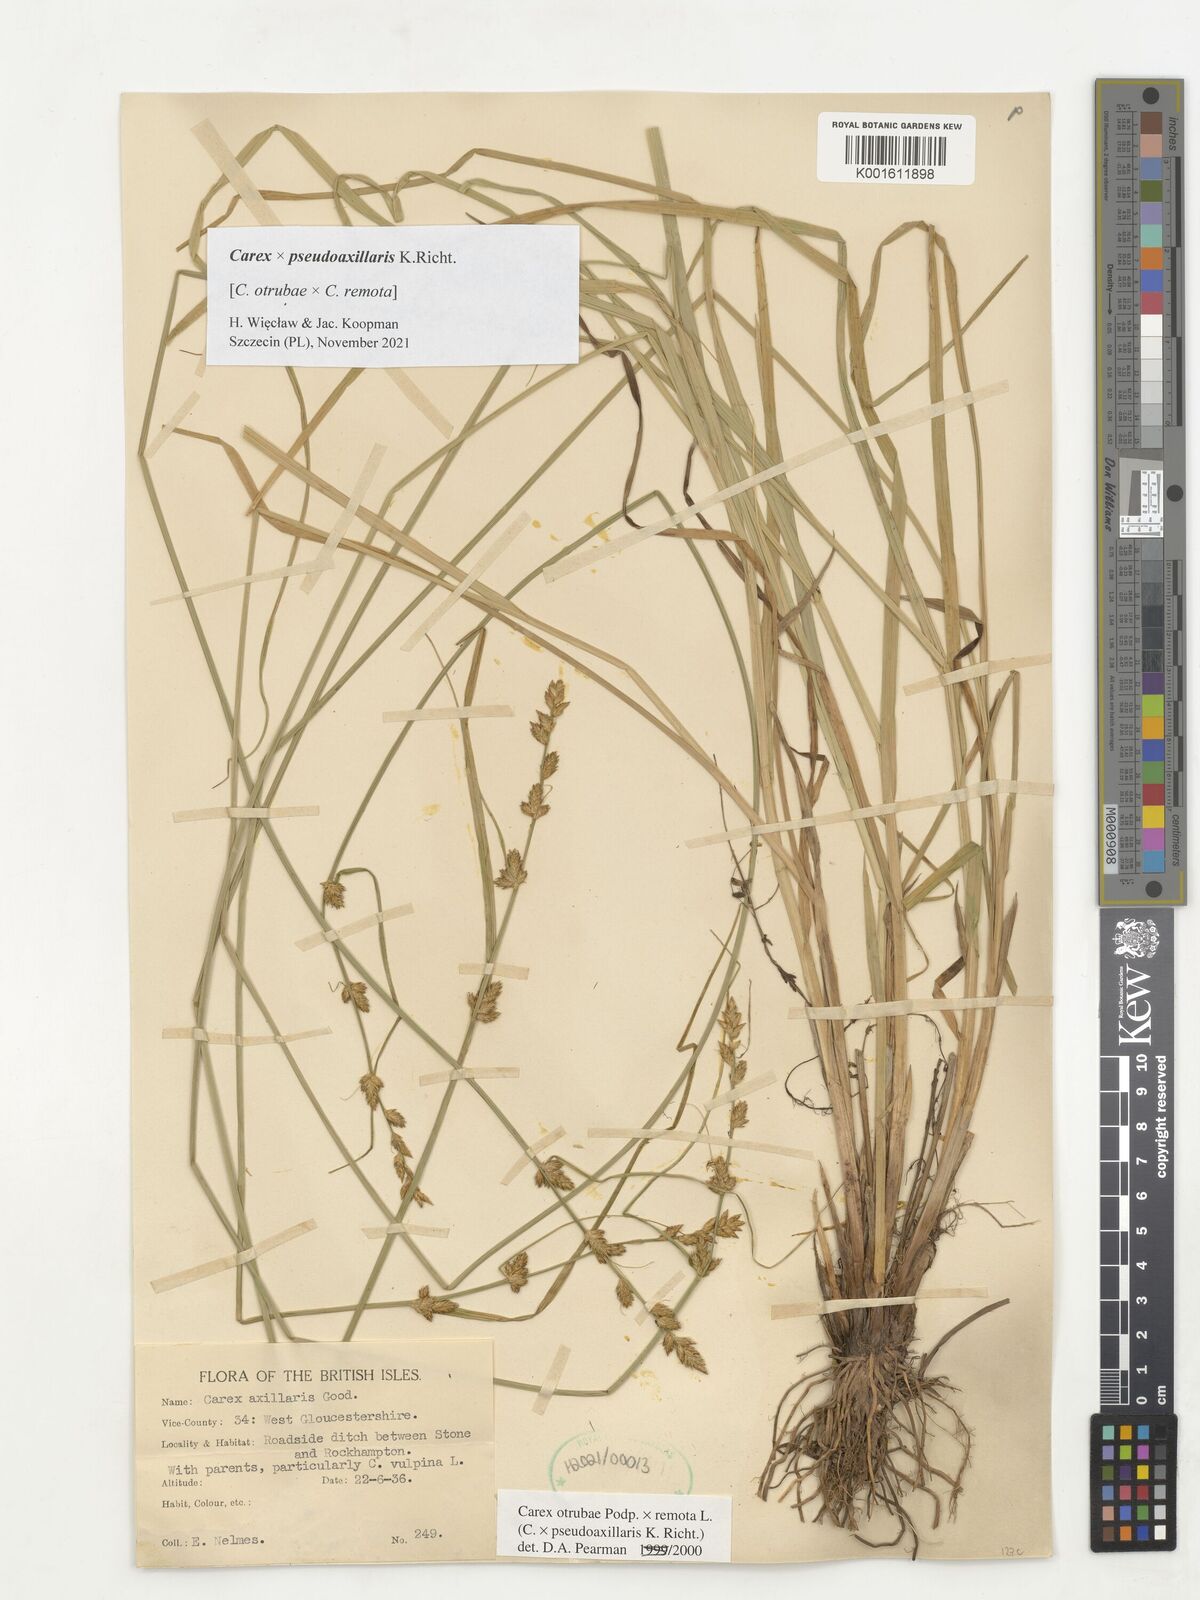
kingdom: Plantae
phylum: Tracheophyta
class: Liliopsida
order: Poales
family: Cyperaceae
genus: Carex
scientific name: Carex pseudoaxillaris
